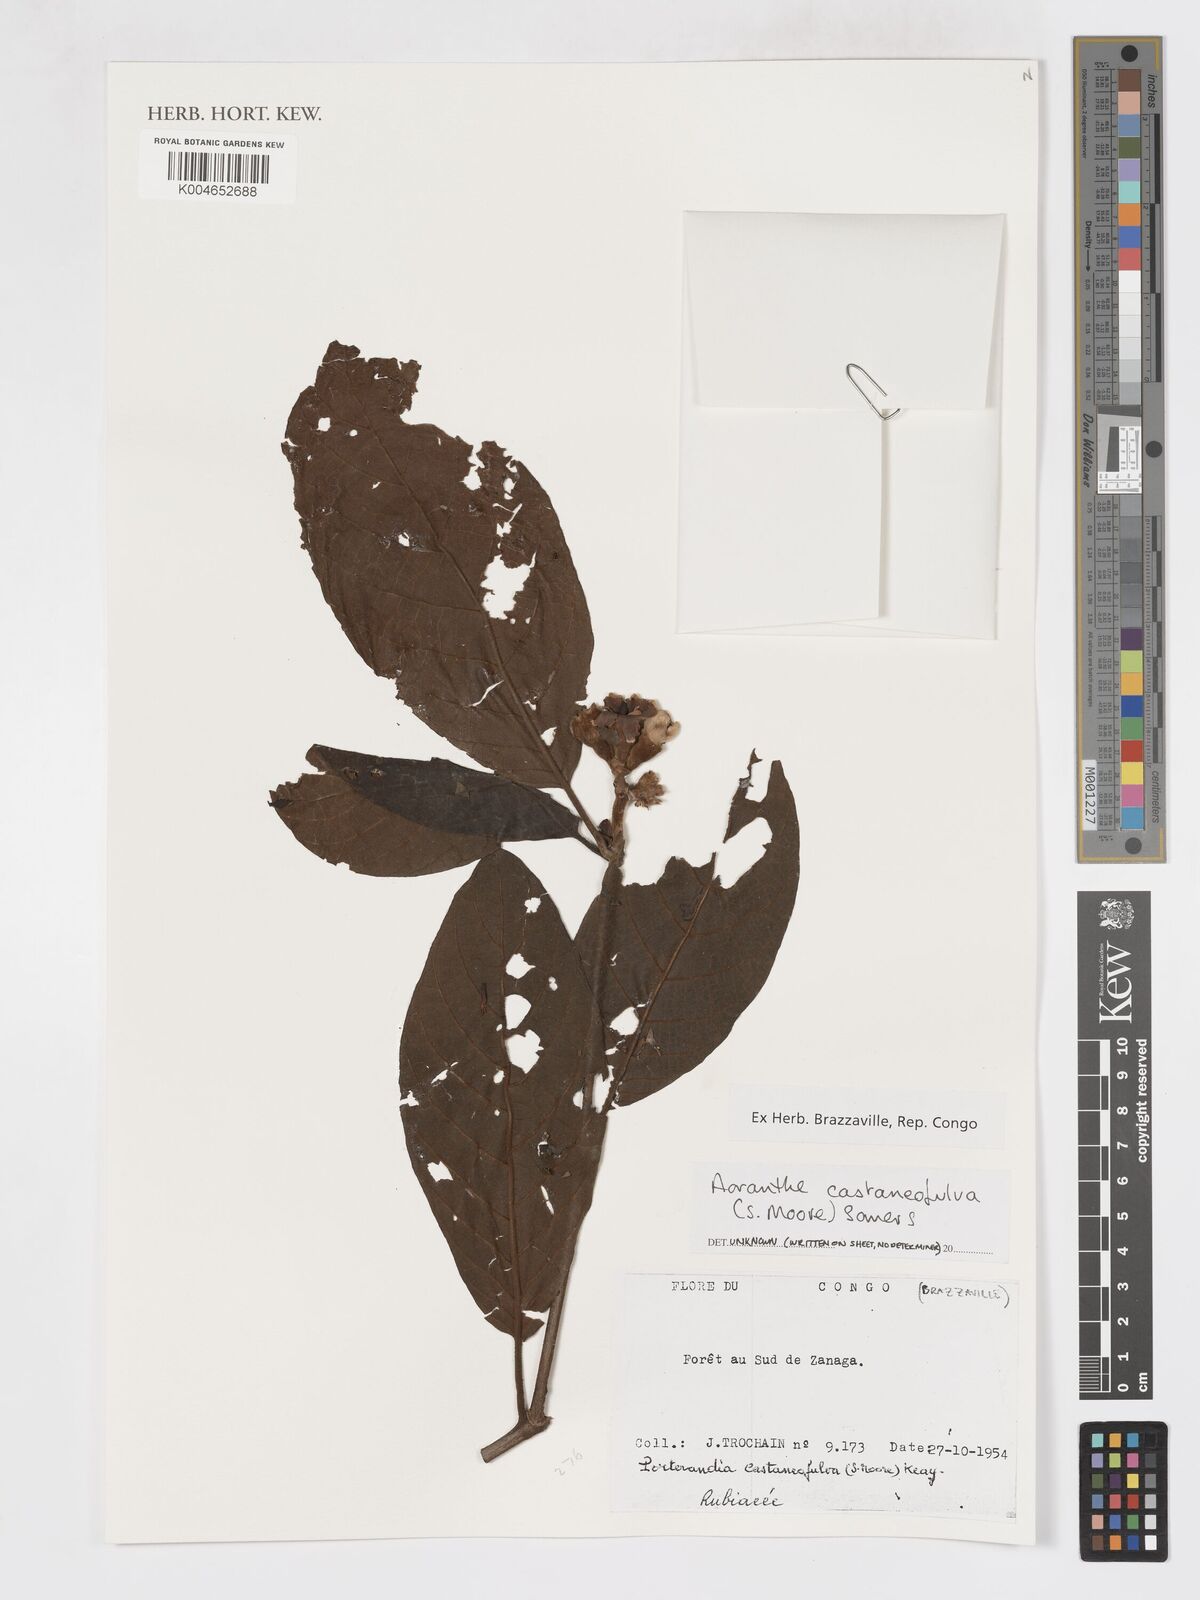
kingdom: Plantae
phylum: Tracheophyta
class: Magnoliopsida
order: Gentianales
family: Rubiaceae
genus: Aoranthe
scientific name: Aoranthe castaneofulva
